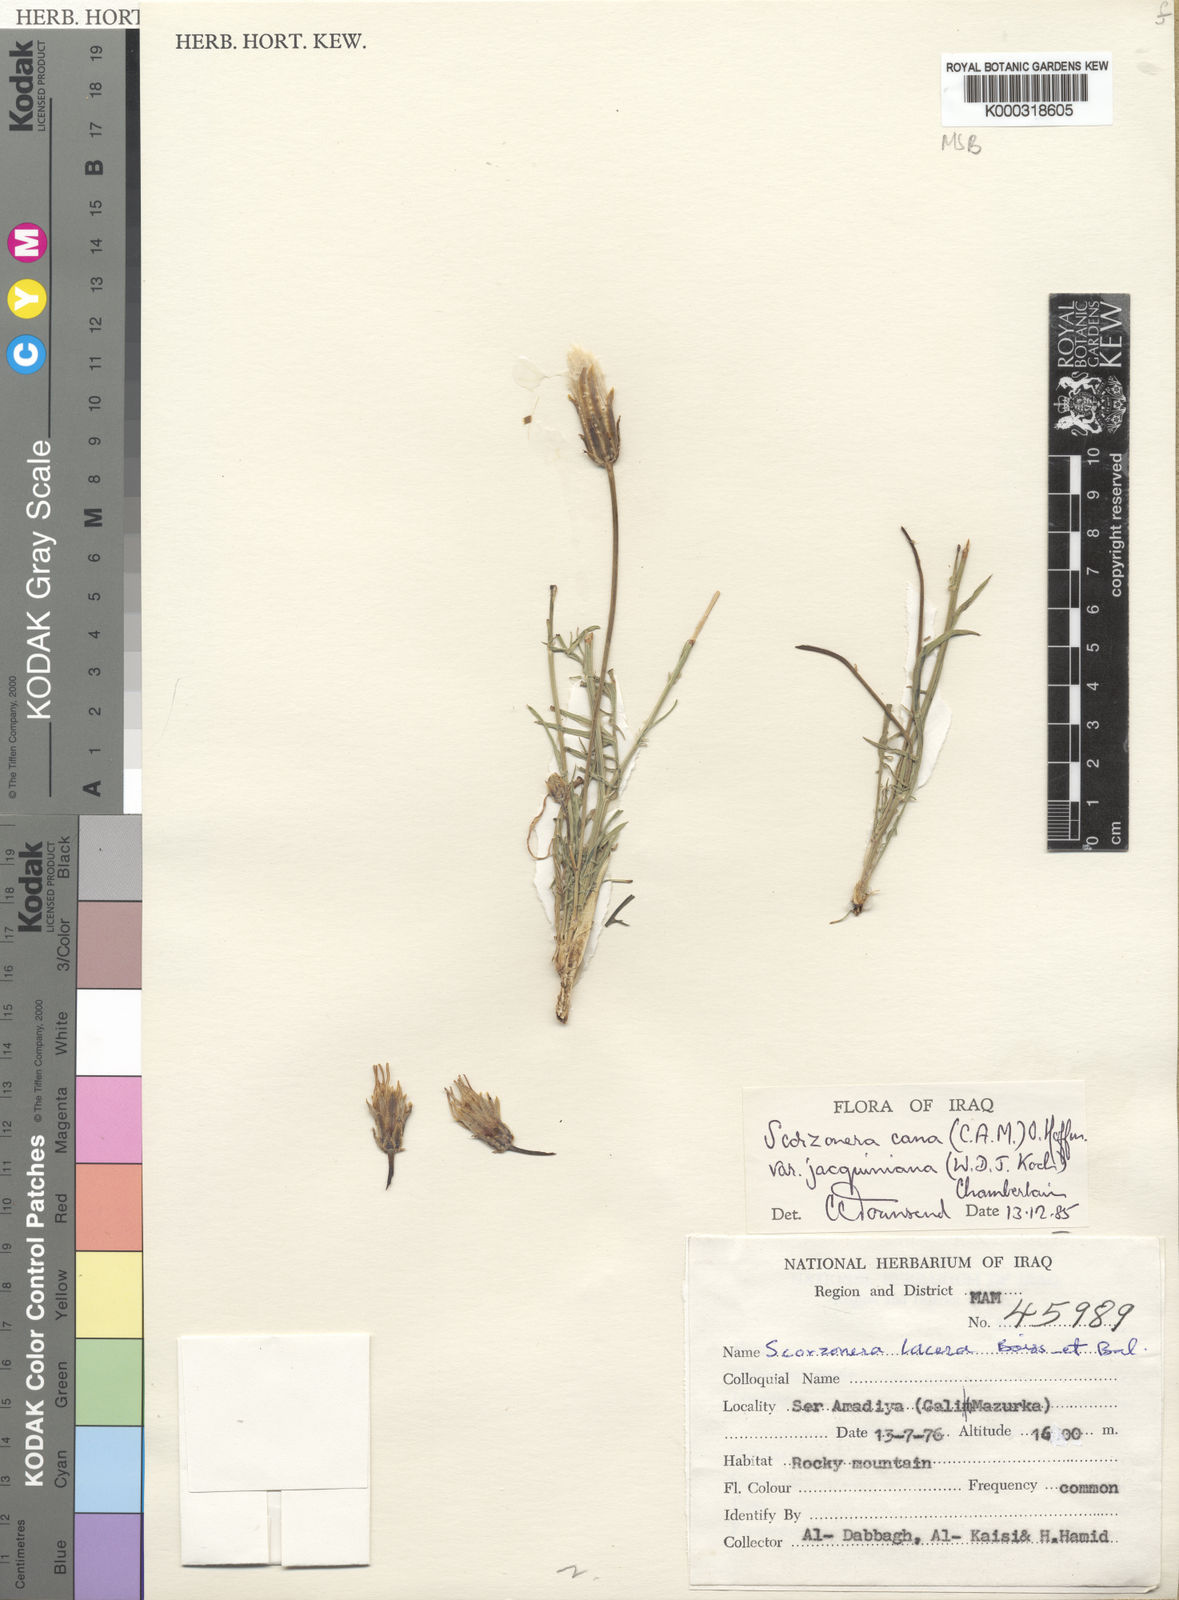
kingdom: Plantae
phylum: Tracheophyta
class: Magnoliopsida
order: Asterales
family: Asteraceae
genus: Scorzonera
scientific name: Scorzonera cana
